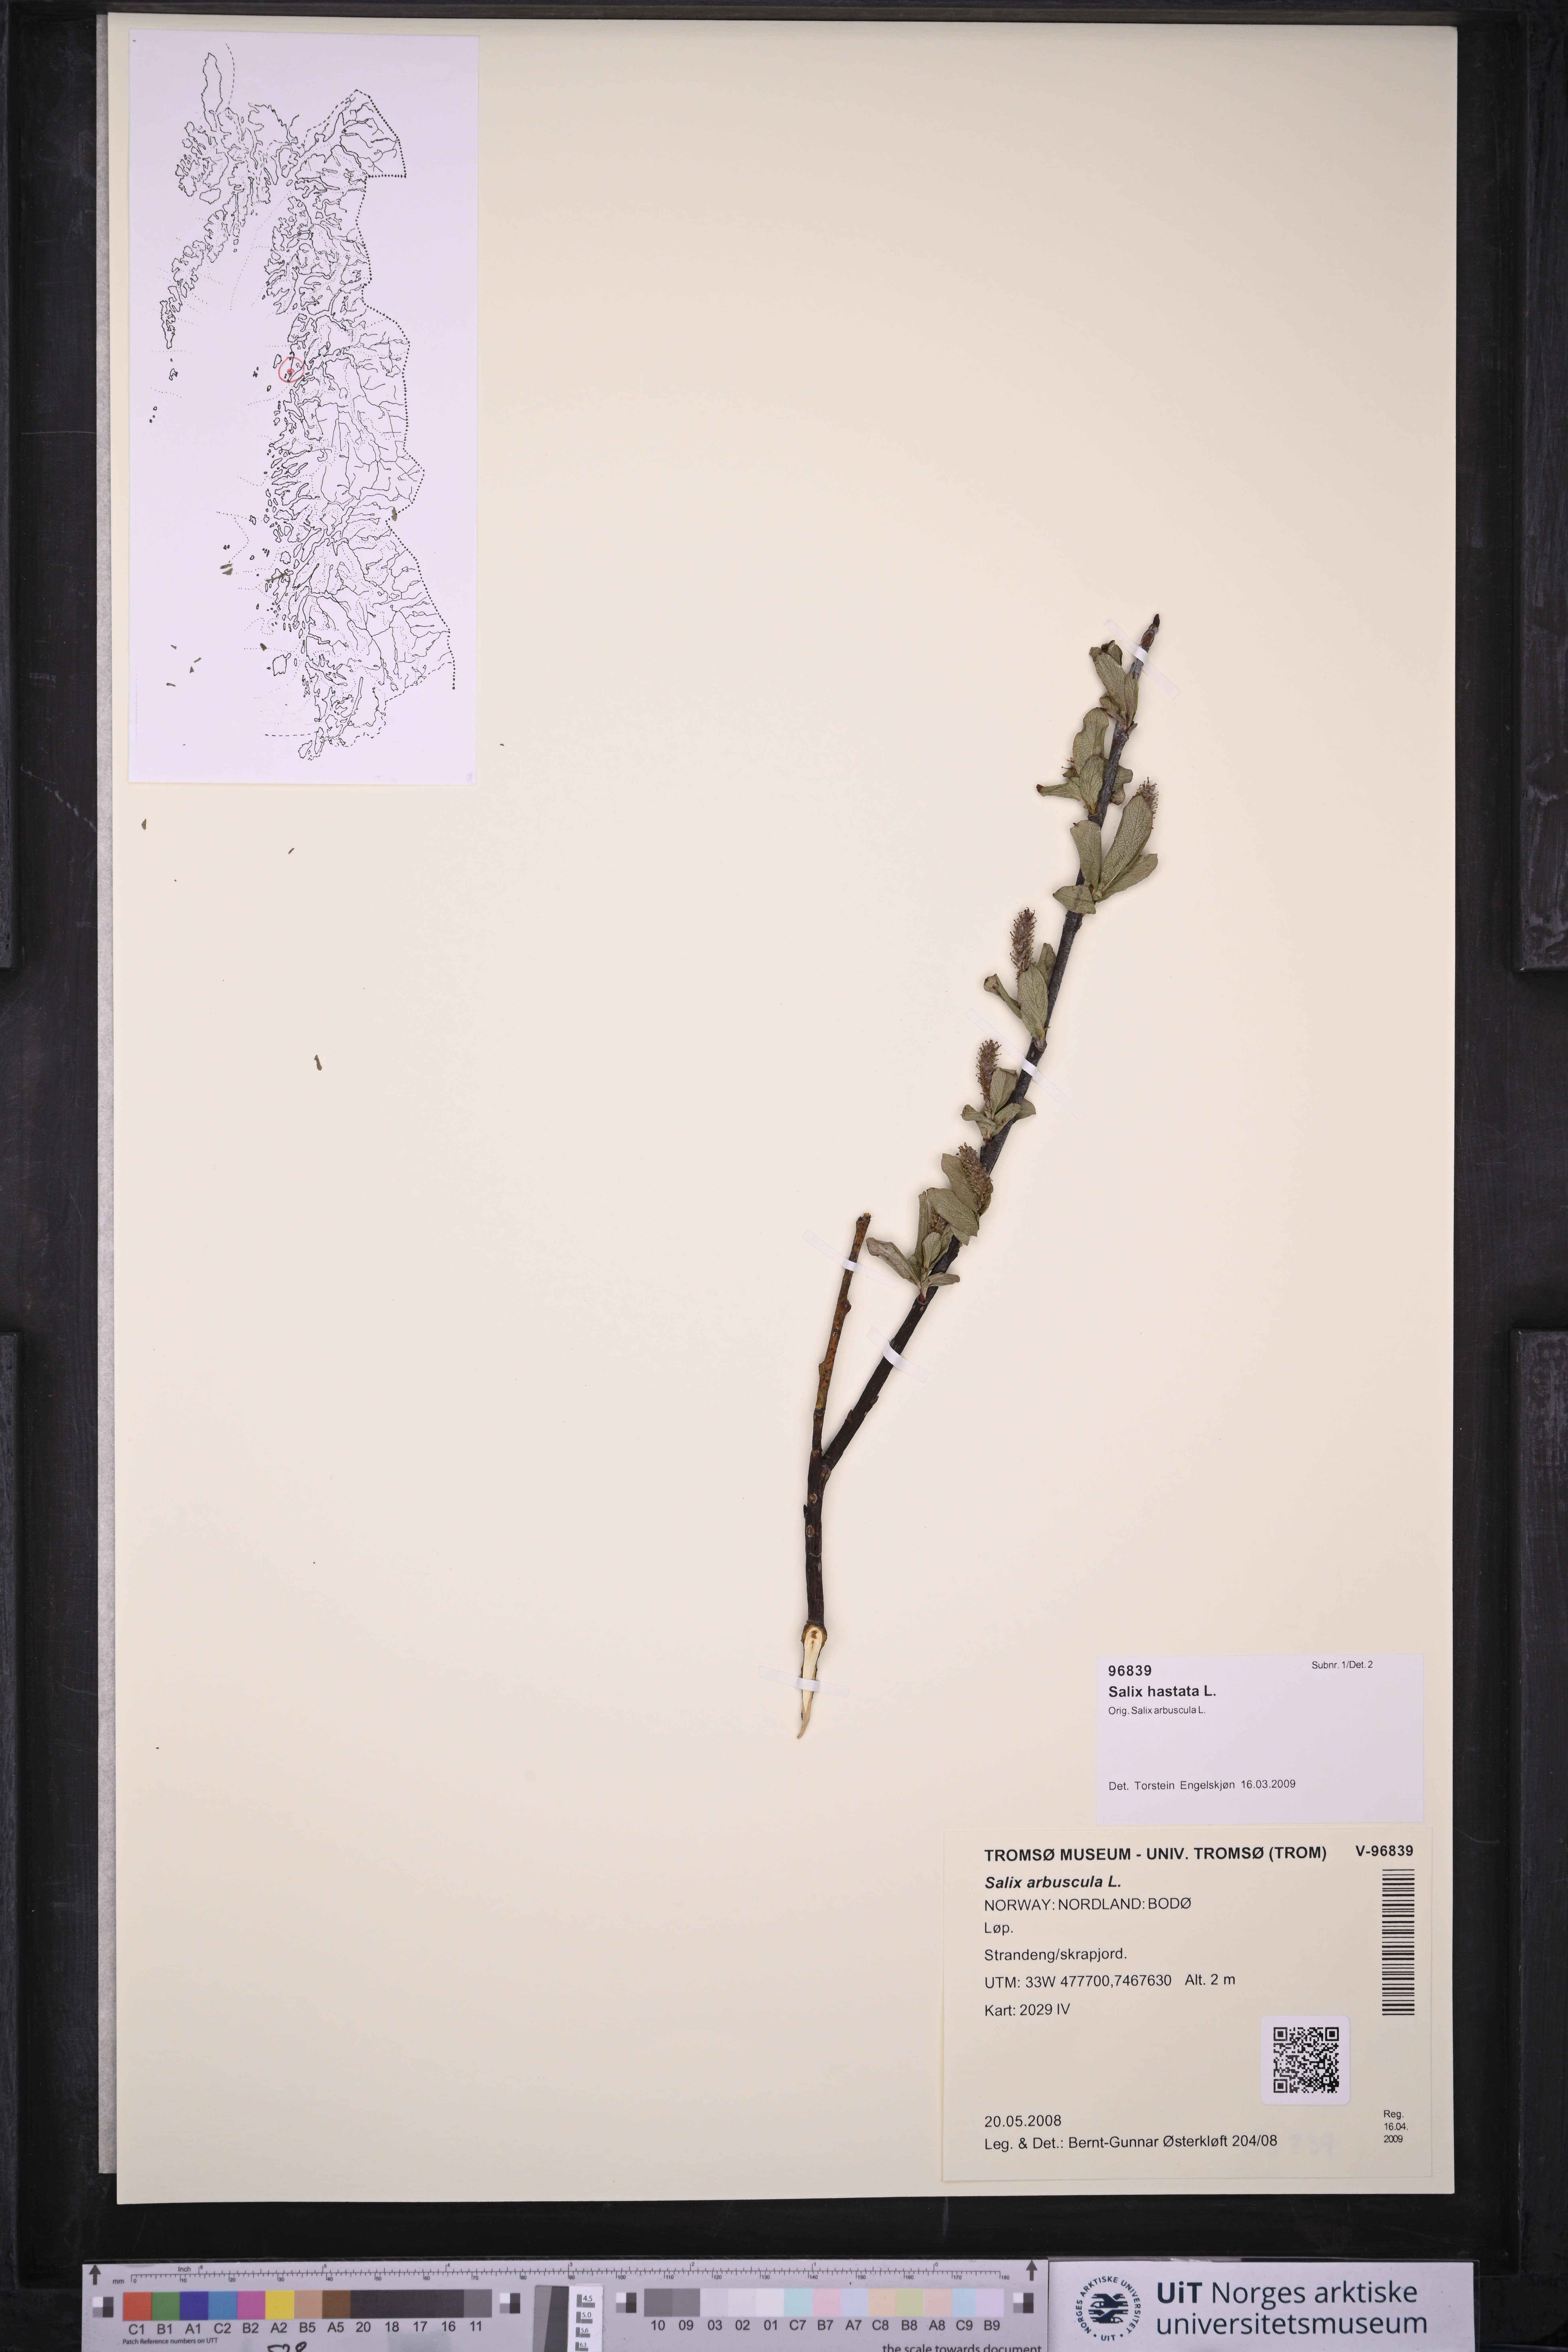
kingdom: Plantae
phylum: Tracheophyta
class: Magnoliopsida
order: Malpighiales
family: Salicaceae
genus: Salix
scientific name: Salix hastata
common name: Halberd willow
